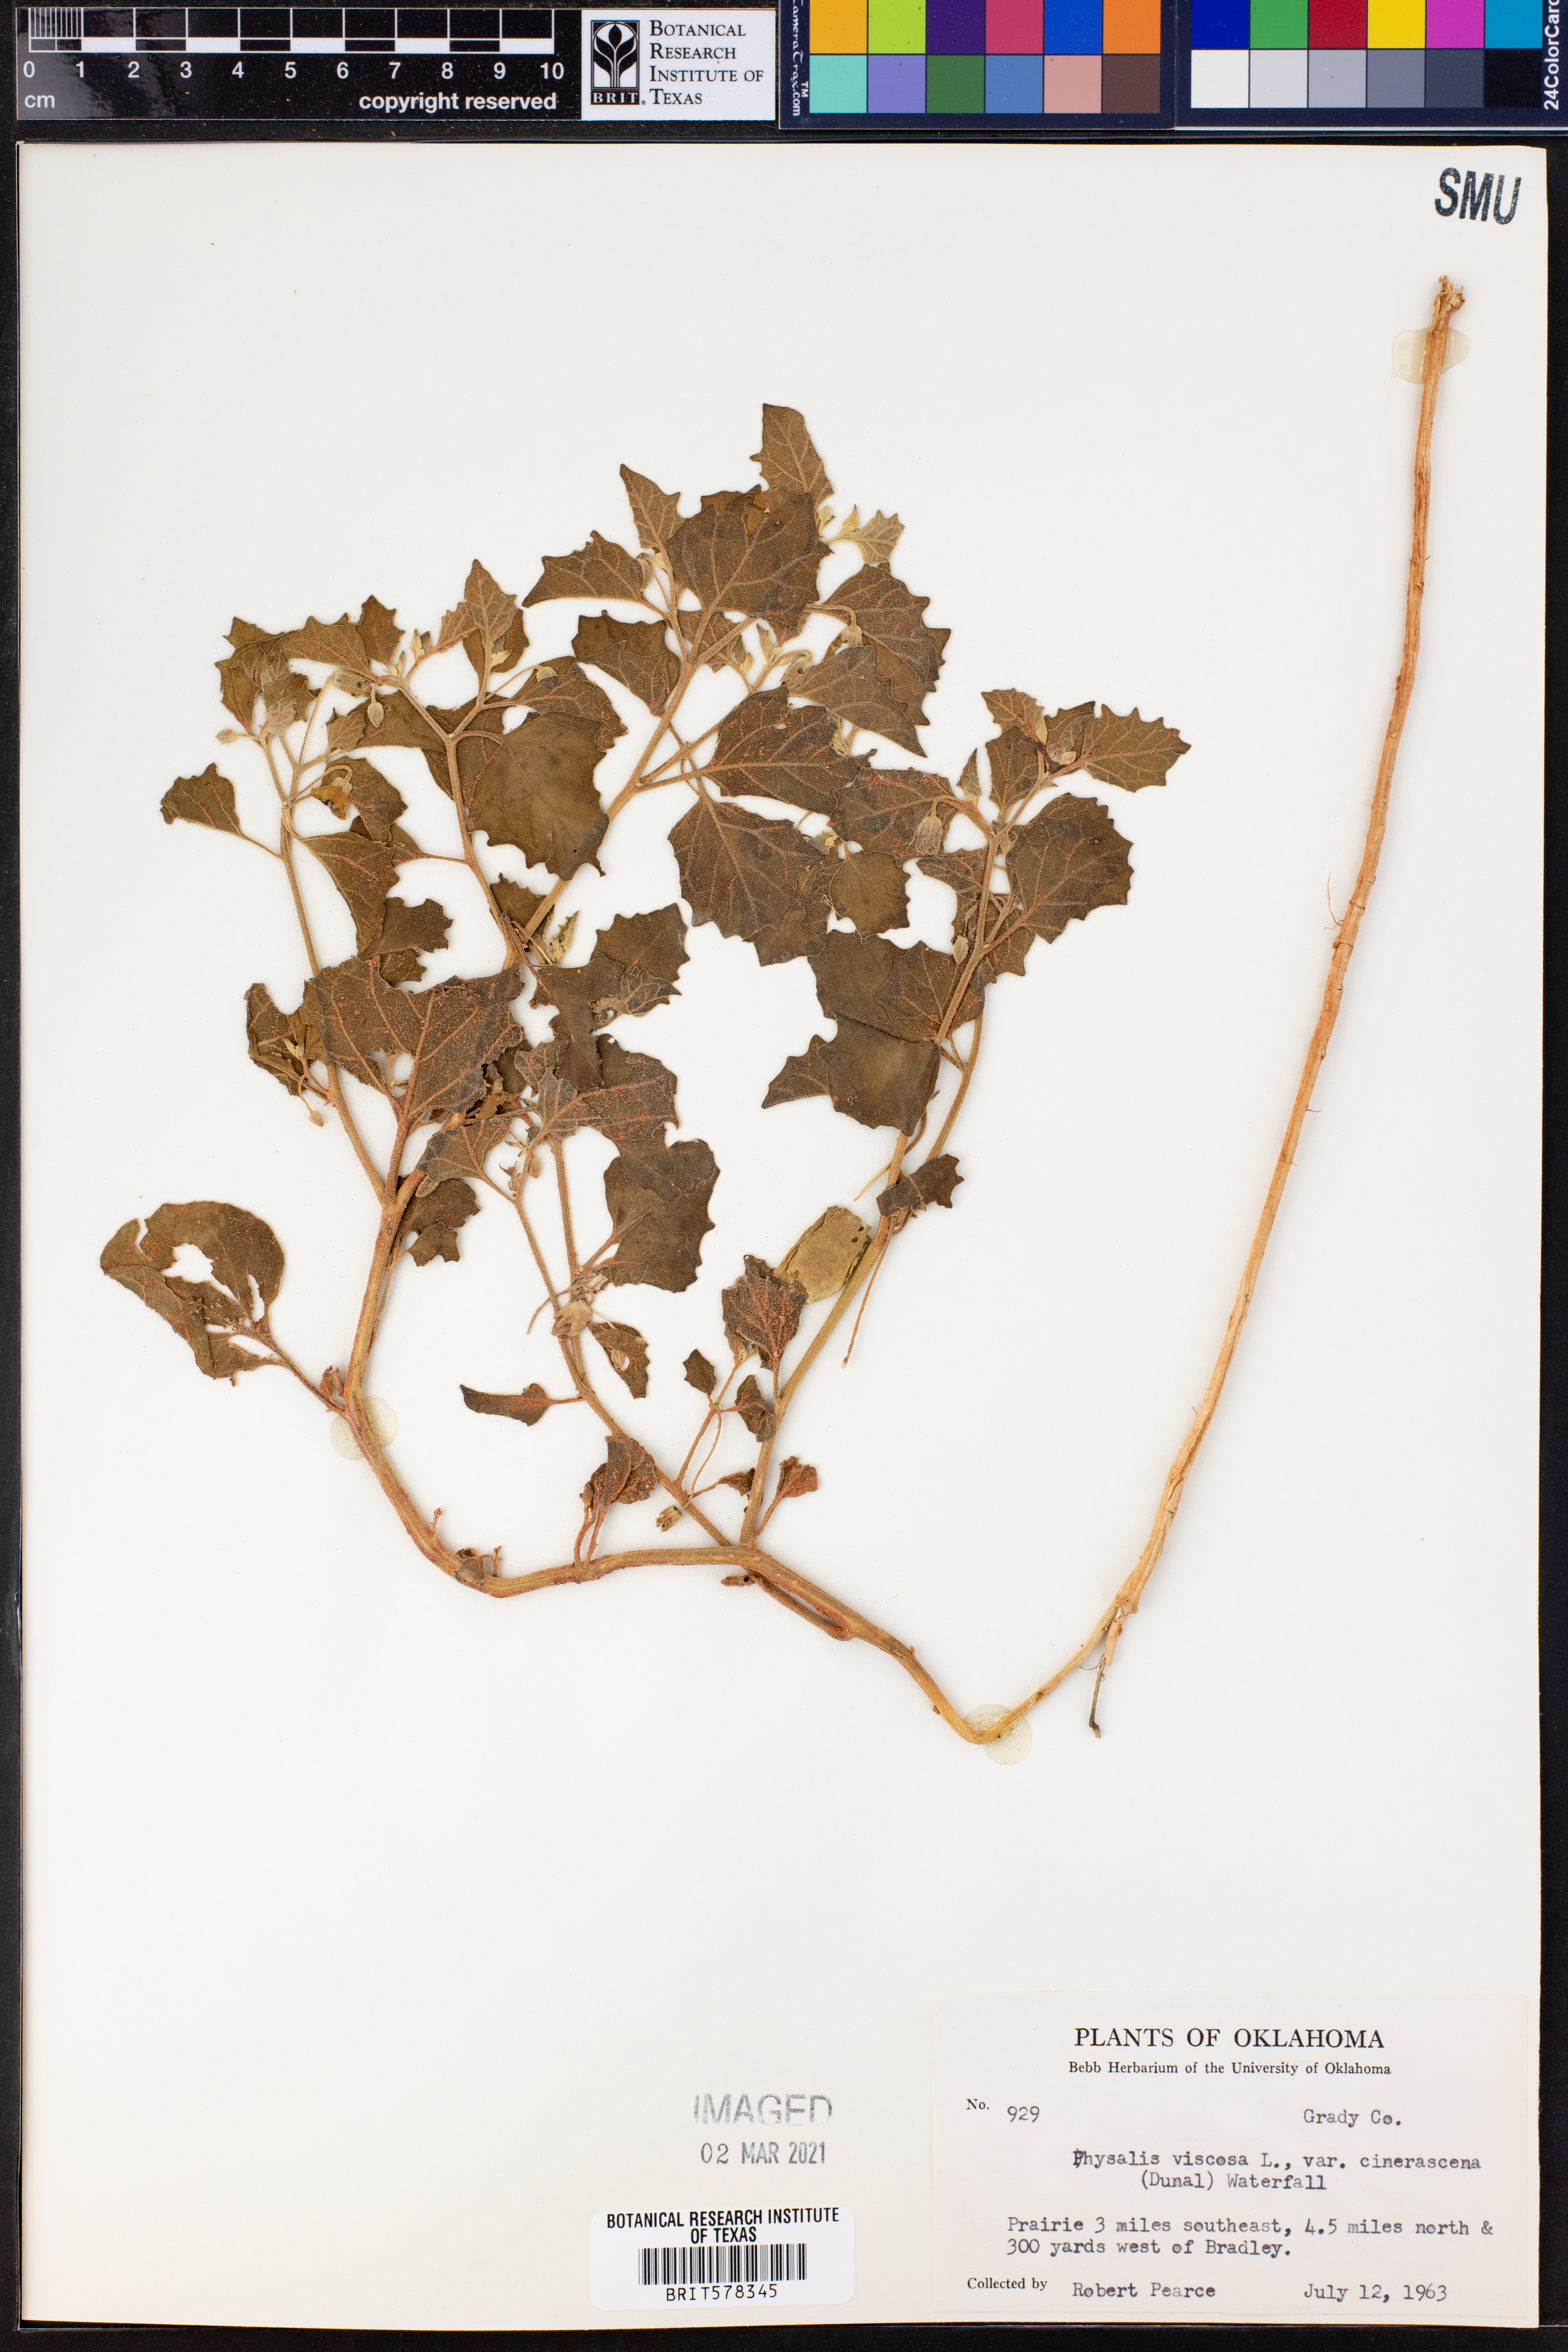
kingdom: Plantae
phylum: Tracheophyta
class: Magnoliopsida
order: Solanales
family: Solanaceae
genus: Physalis
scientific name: Physalis cinerascens
